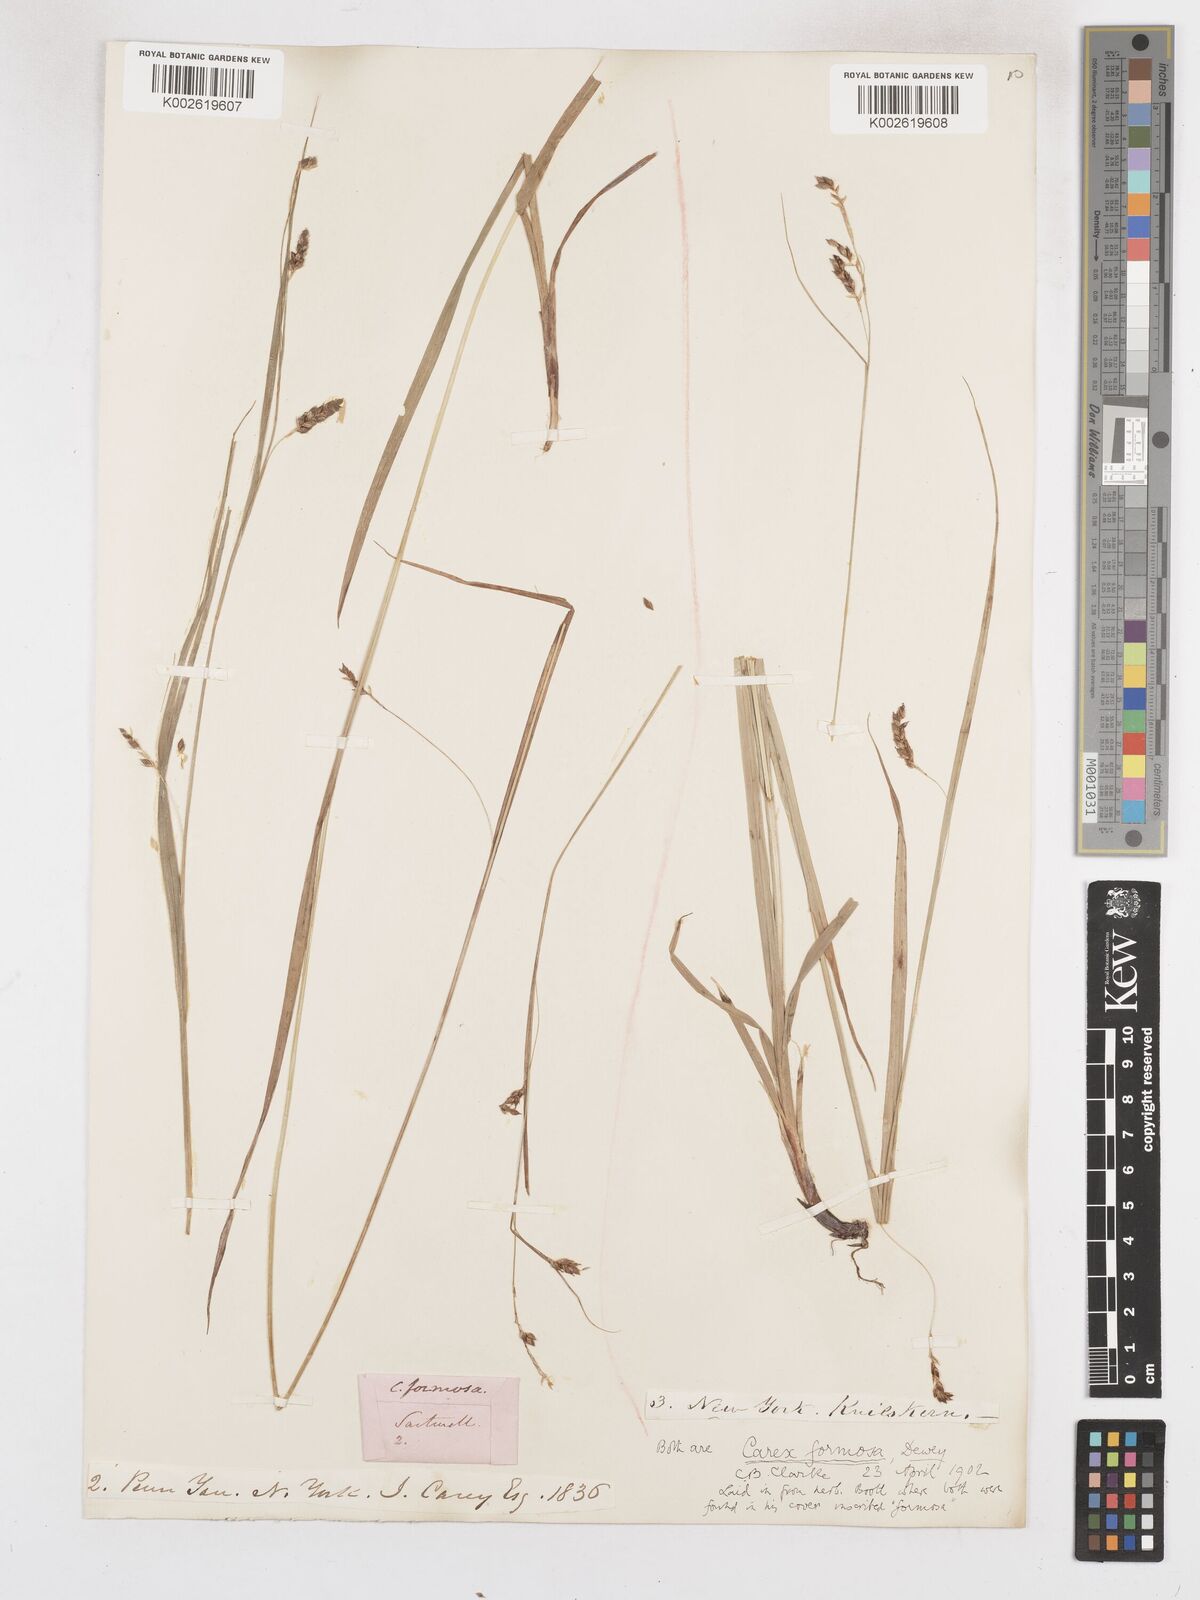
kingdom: Plantae
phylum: Tracheophyta
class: Liliopsida
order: Poales
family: Cyperaceae
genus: Carex
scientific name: Carex formosa
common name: Awnless graceful sedge
